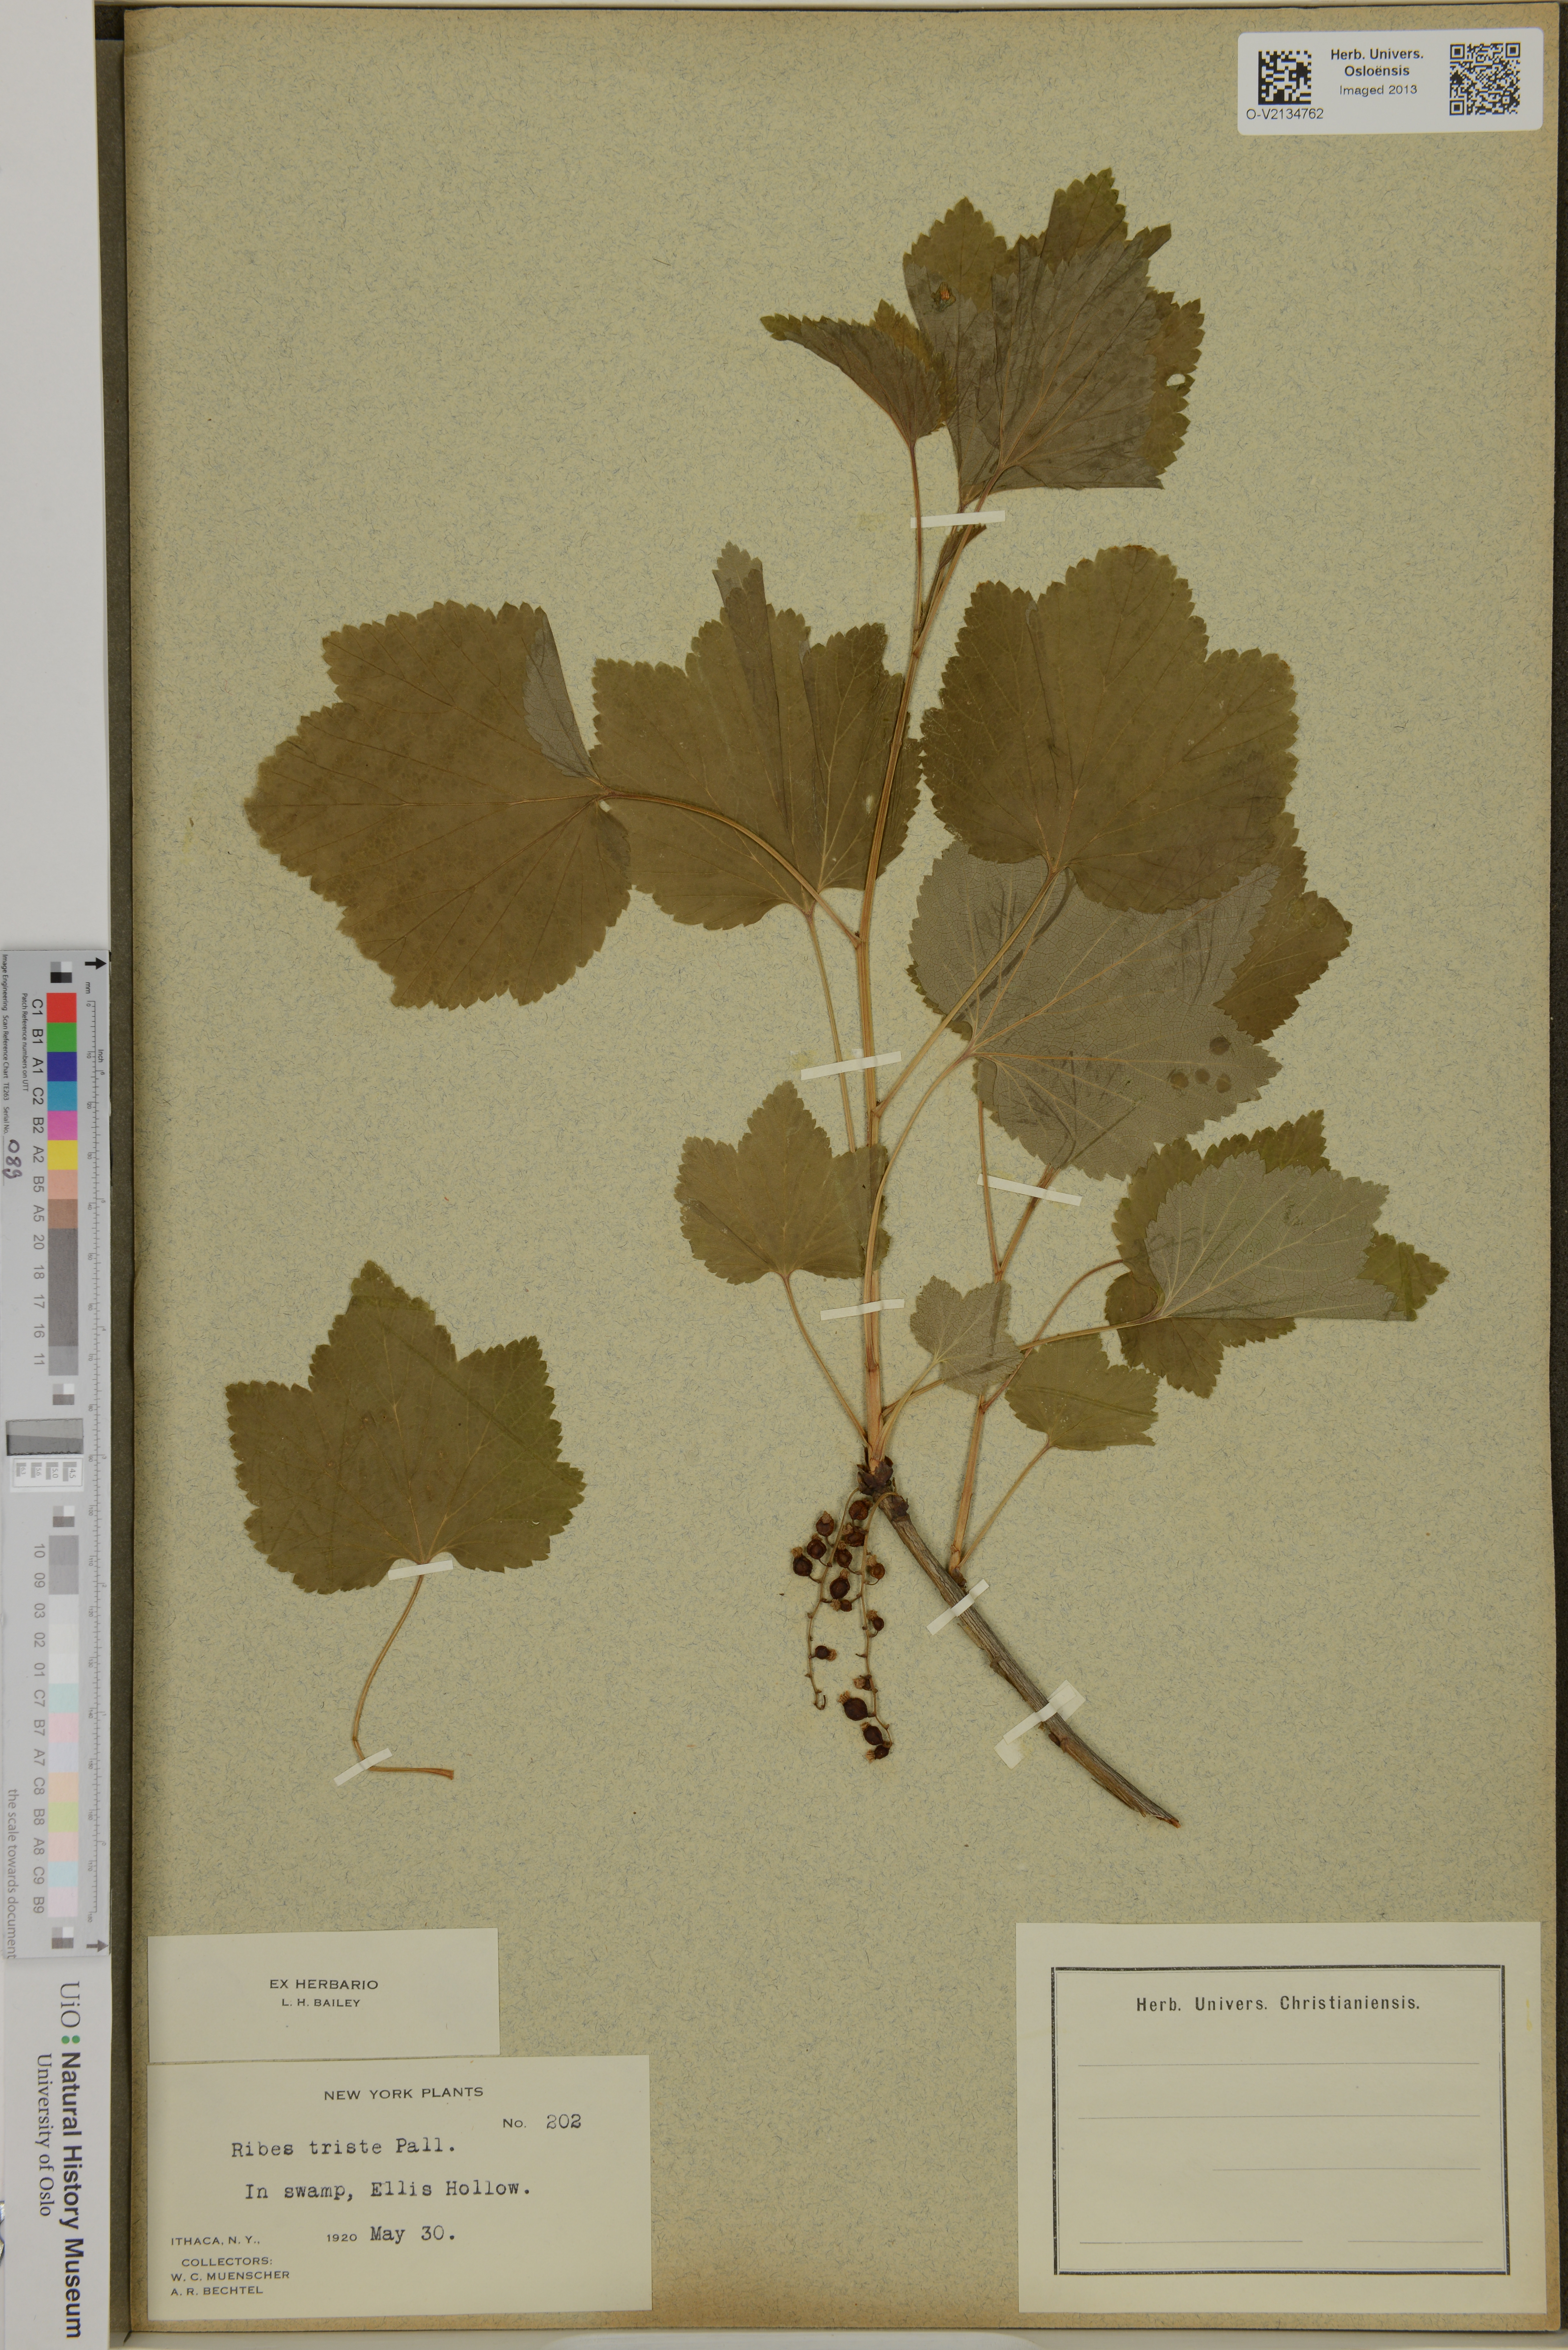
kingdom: Plantae
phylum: Tracheophyta
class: Magnoliopsida
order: Saxifragales
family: Grossulariaceae
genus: Ribes
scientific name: Ribes triste
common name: Swamp red currant
